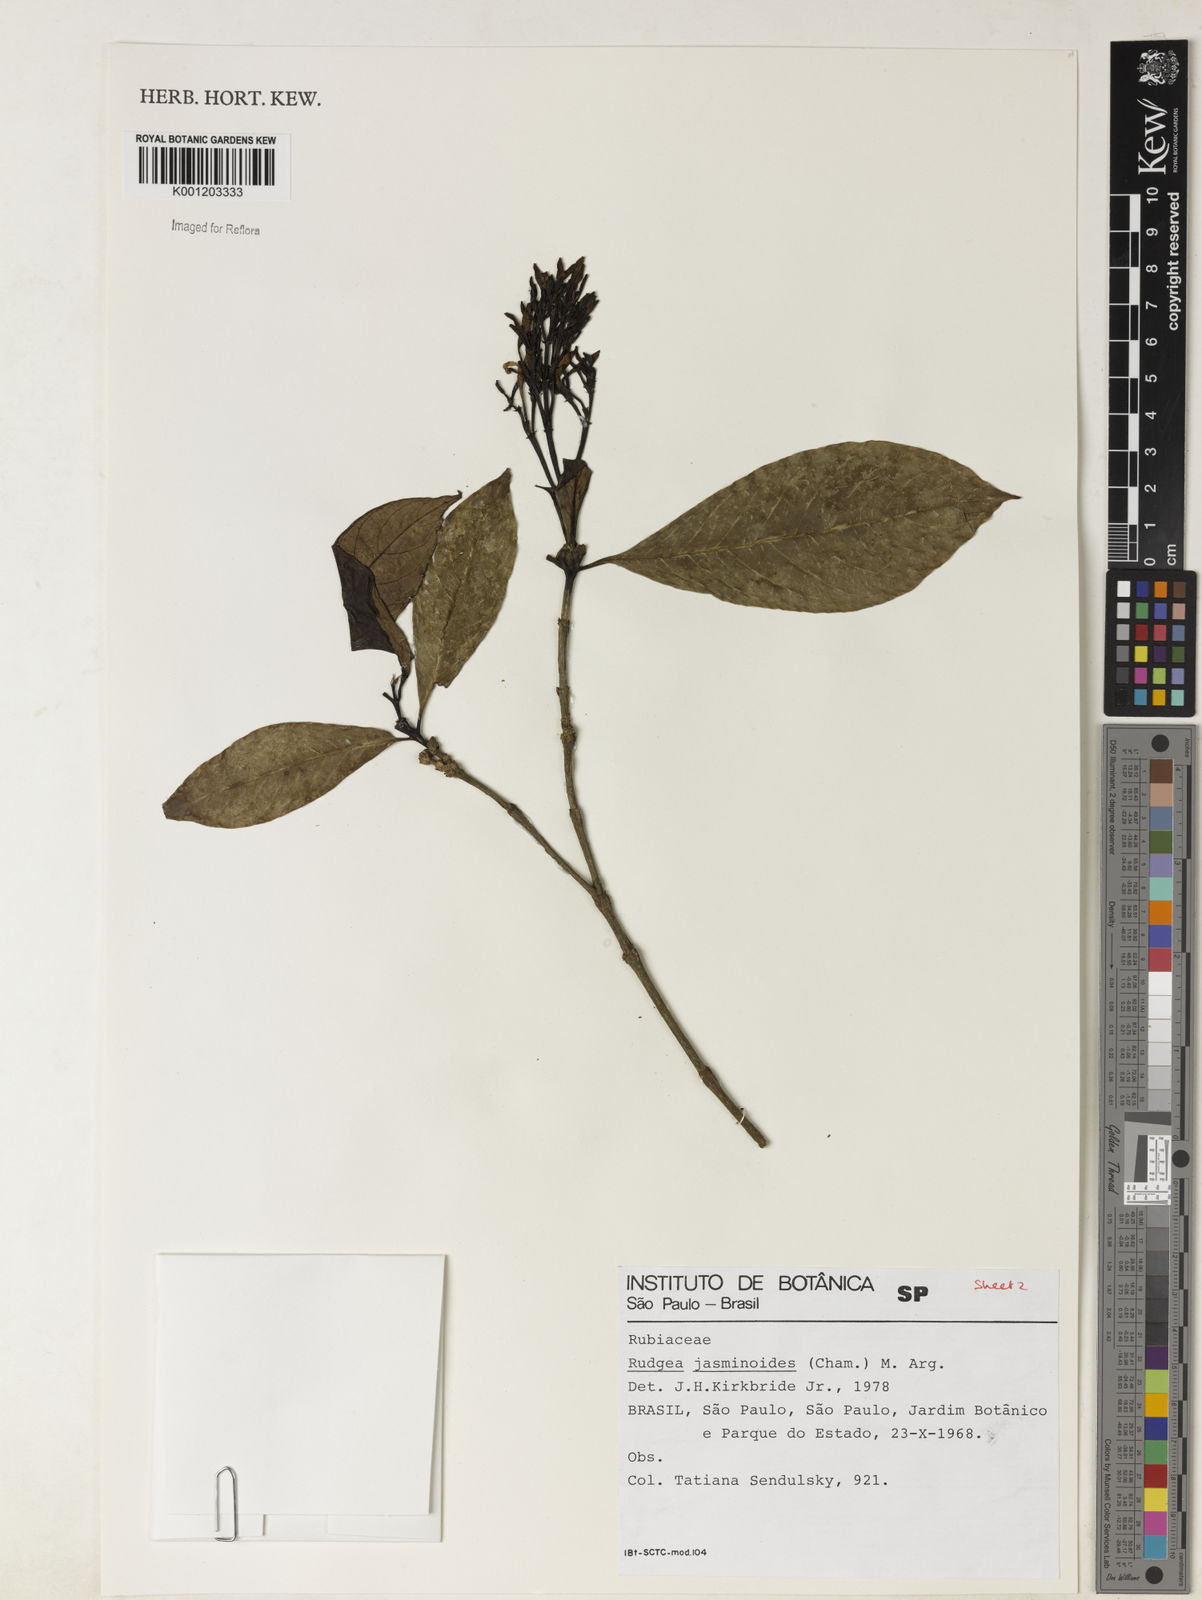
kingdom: Plantae
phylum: Tracheophyta
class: Magnoliopsida
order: Gentianales
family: Rubiaceae
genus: Rudgea
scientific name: Rudgea
